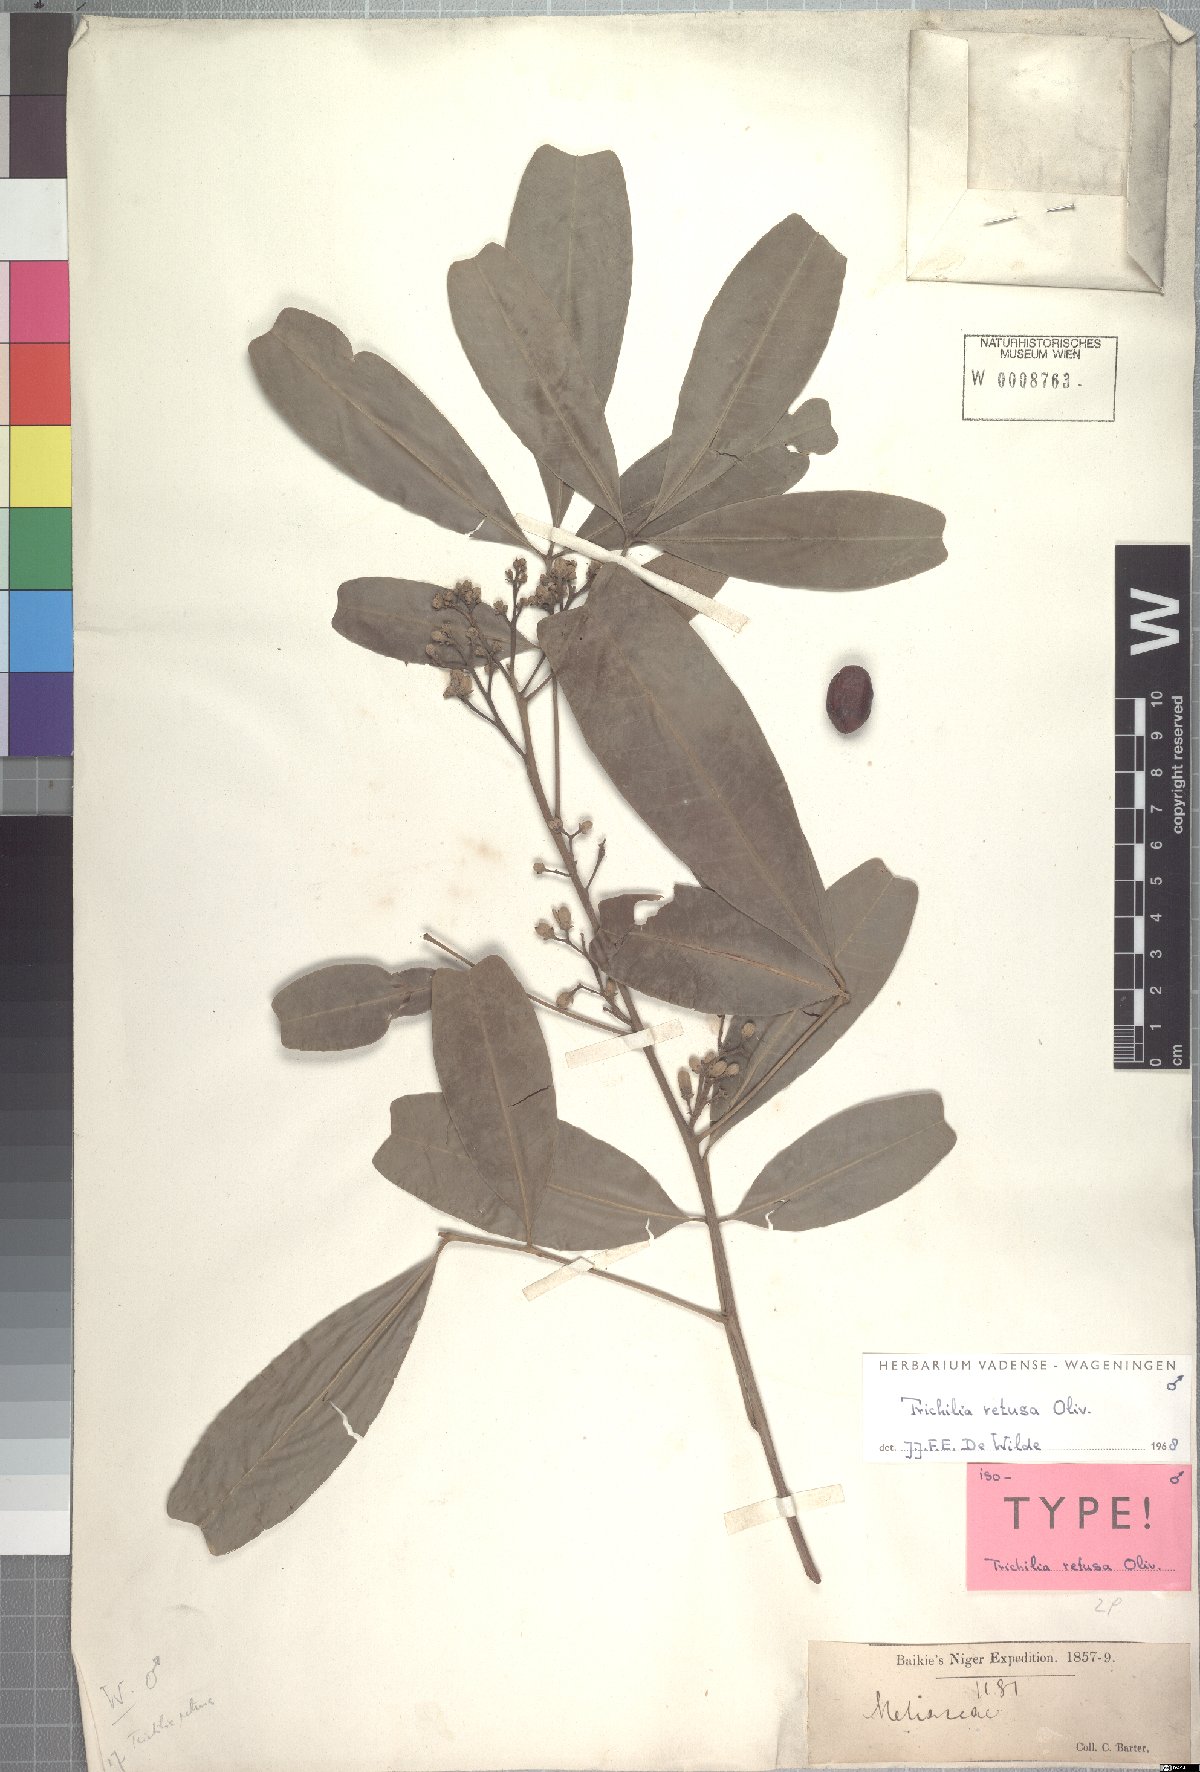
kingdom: Plantae
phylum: Tracheophyta
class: Magnoliopsida
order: Sapindales
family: Meliaceae
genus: Trichilia
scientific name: Trichilia retusa
